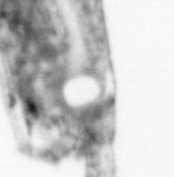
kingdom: Animalia
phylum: Arthropoda
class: Copepoda
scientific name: Copepoda
